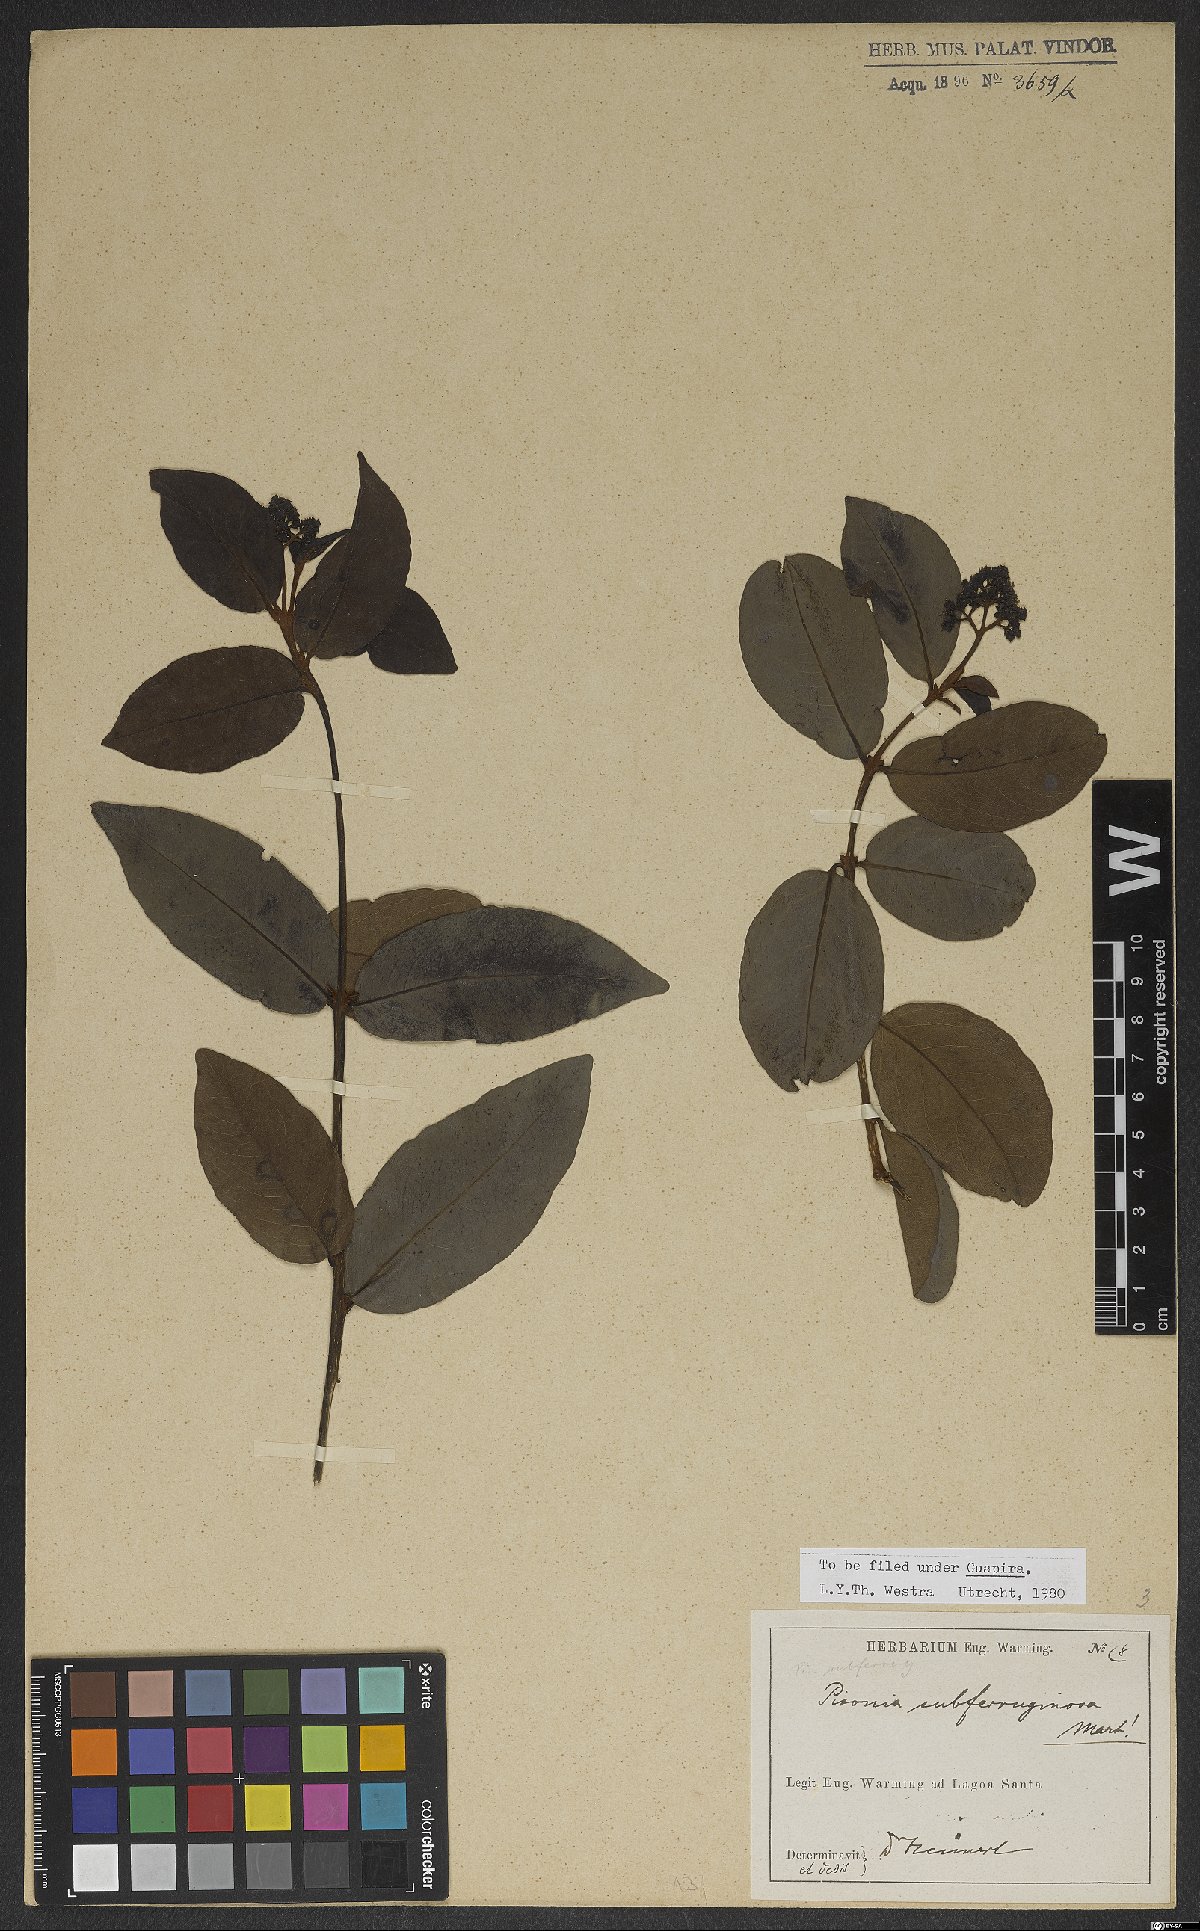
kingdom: Plantae
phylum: Tracheophyta
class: Magnoliopsida
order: Caryophyllales
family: Nyctaginaceae
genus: Guapira
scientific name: Guapira graciliflora
